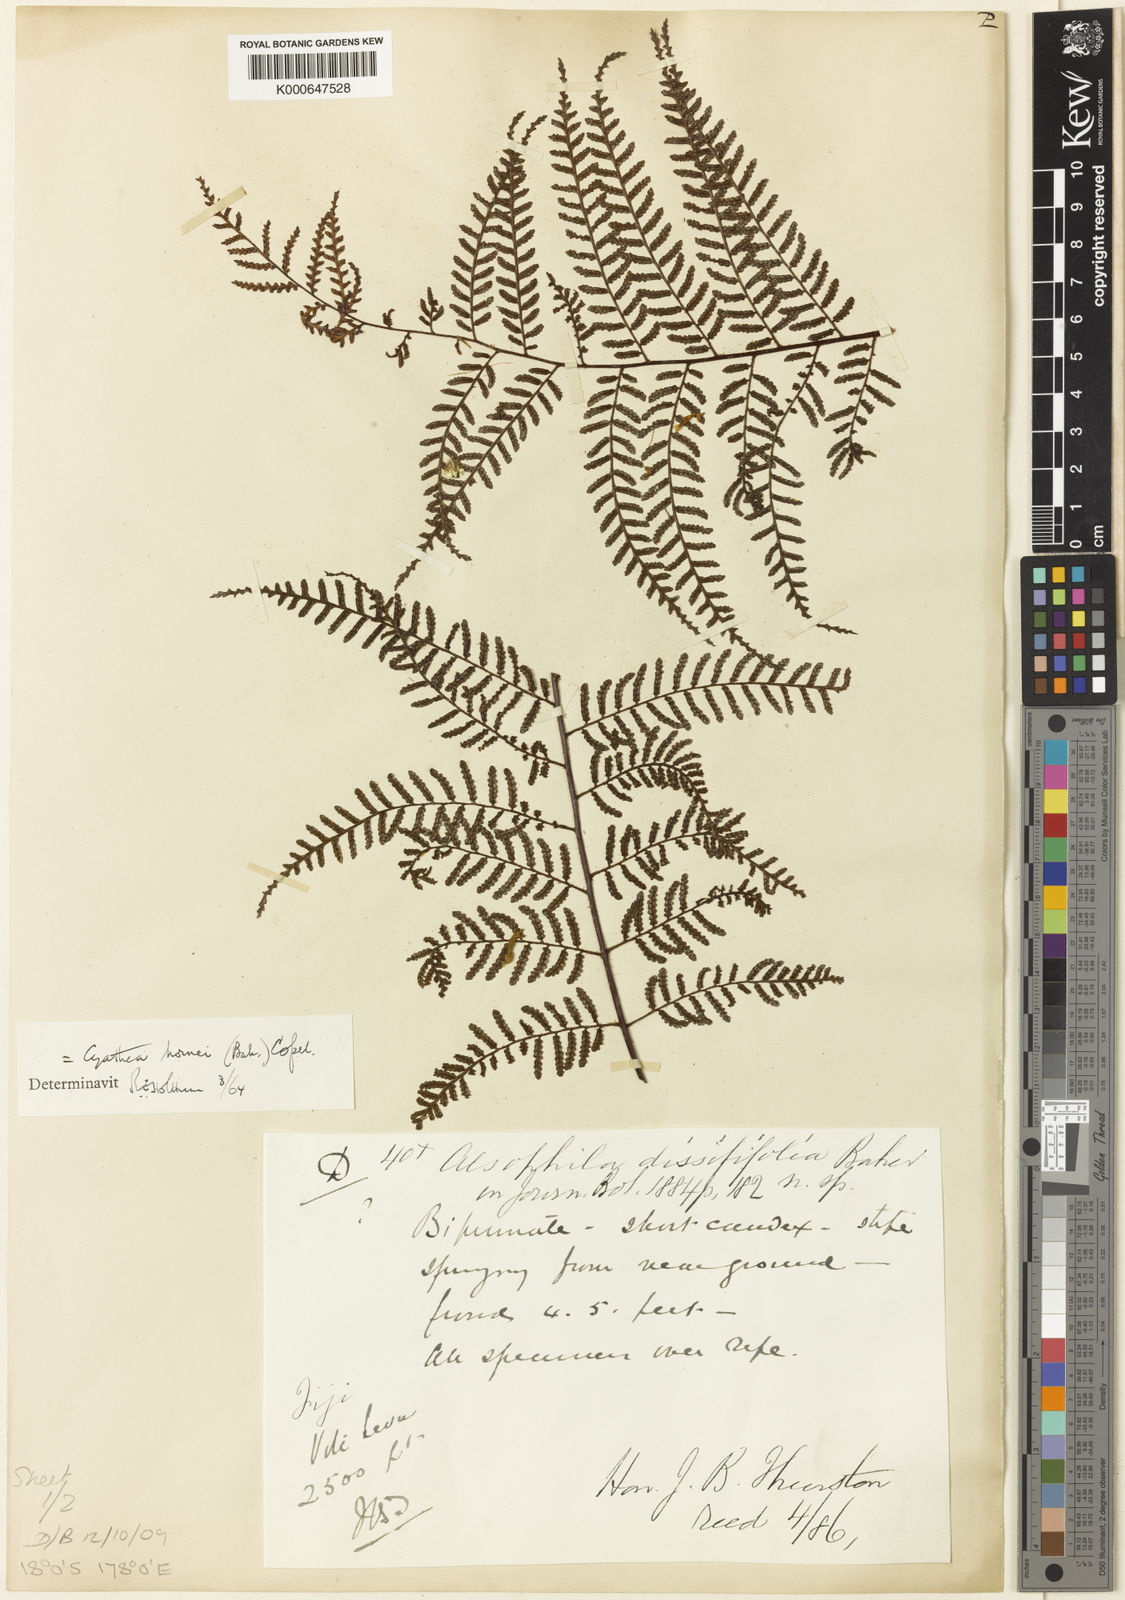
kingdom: Plantae
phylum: Tracheophyta
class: Polypodiopsida
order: Cyatheales
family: Cyatheaceae
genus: Gymnosphaera
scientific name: Gymnosphaera hornei
